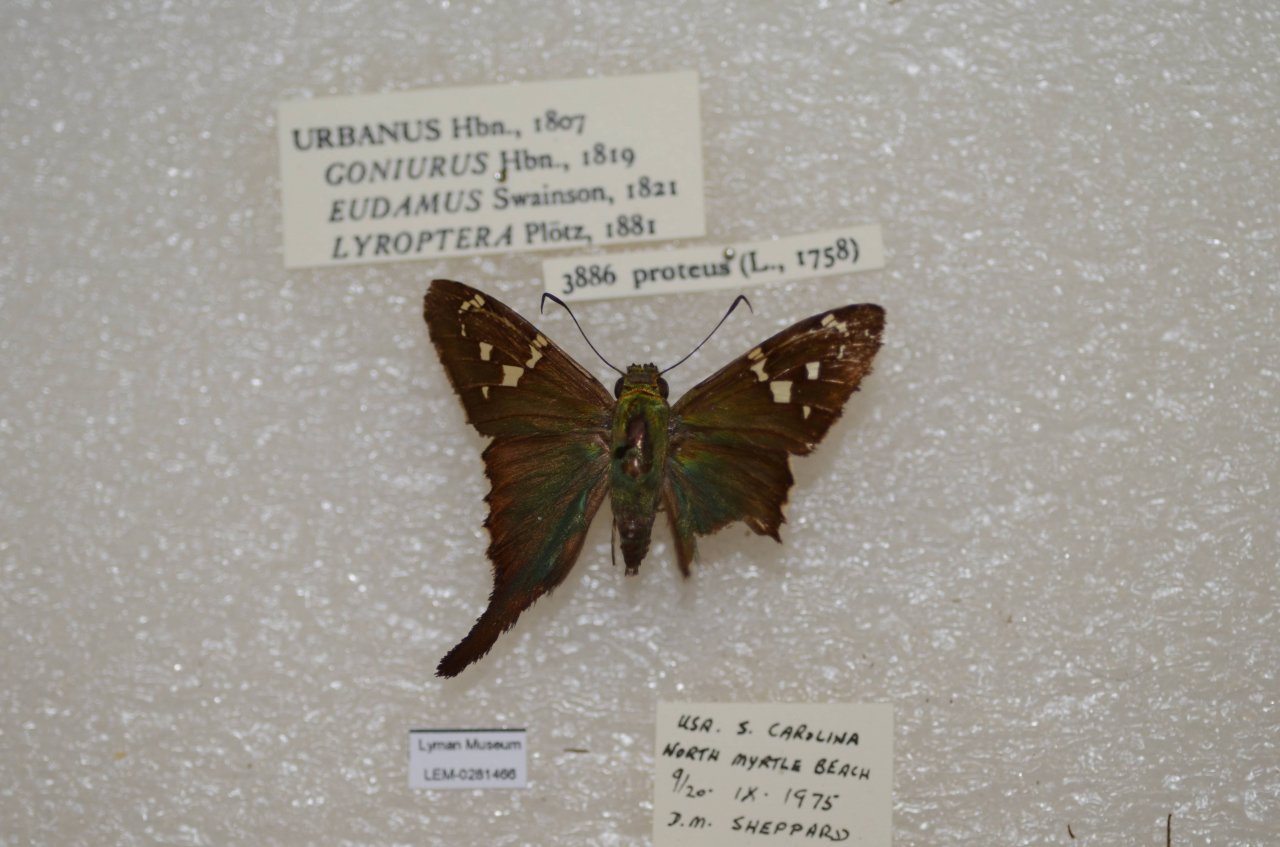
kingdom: Animalia
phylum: Arthropoda
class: Insecta
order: Lepidoptera
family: Hesperiidae
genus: Urbanus
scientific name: Urbanus proteus
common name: Long-tailed Skipper
